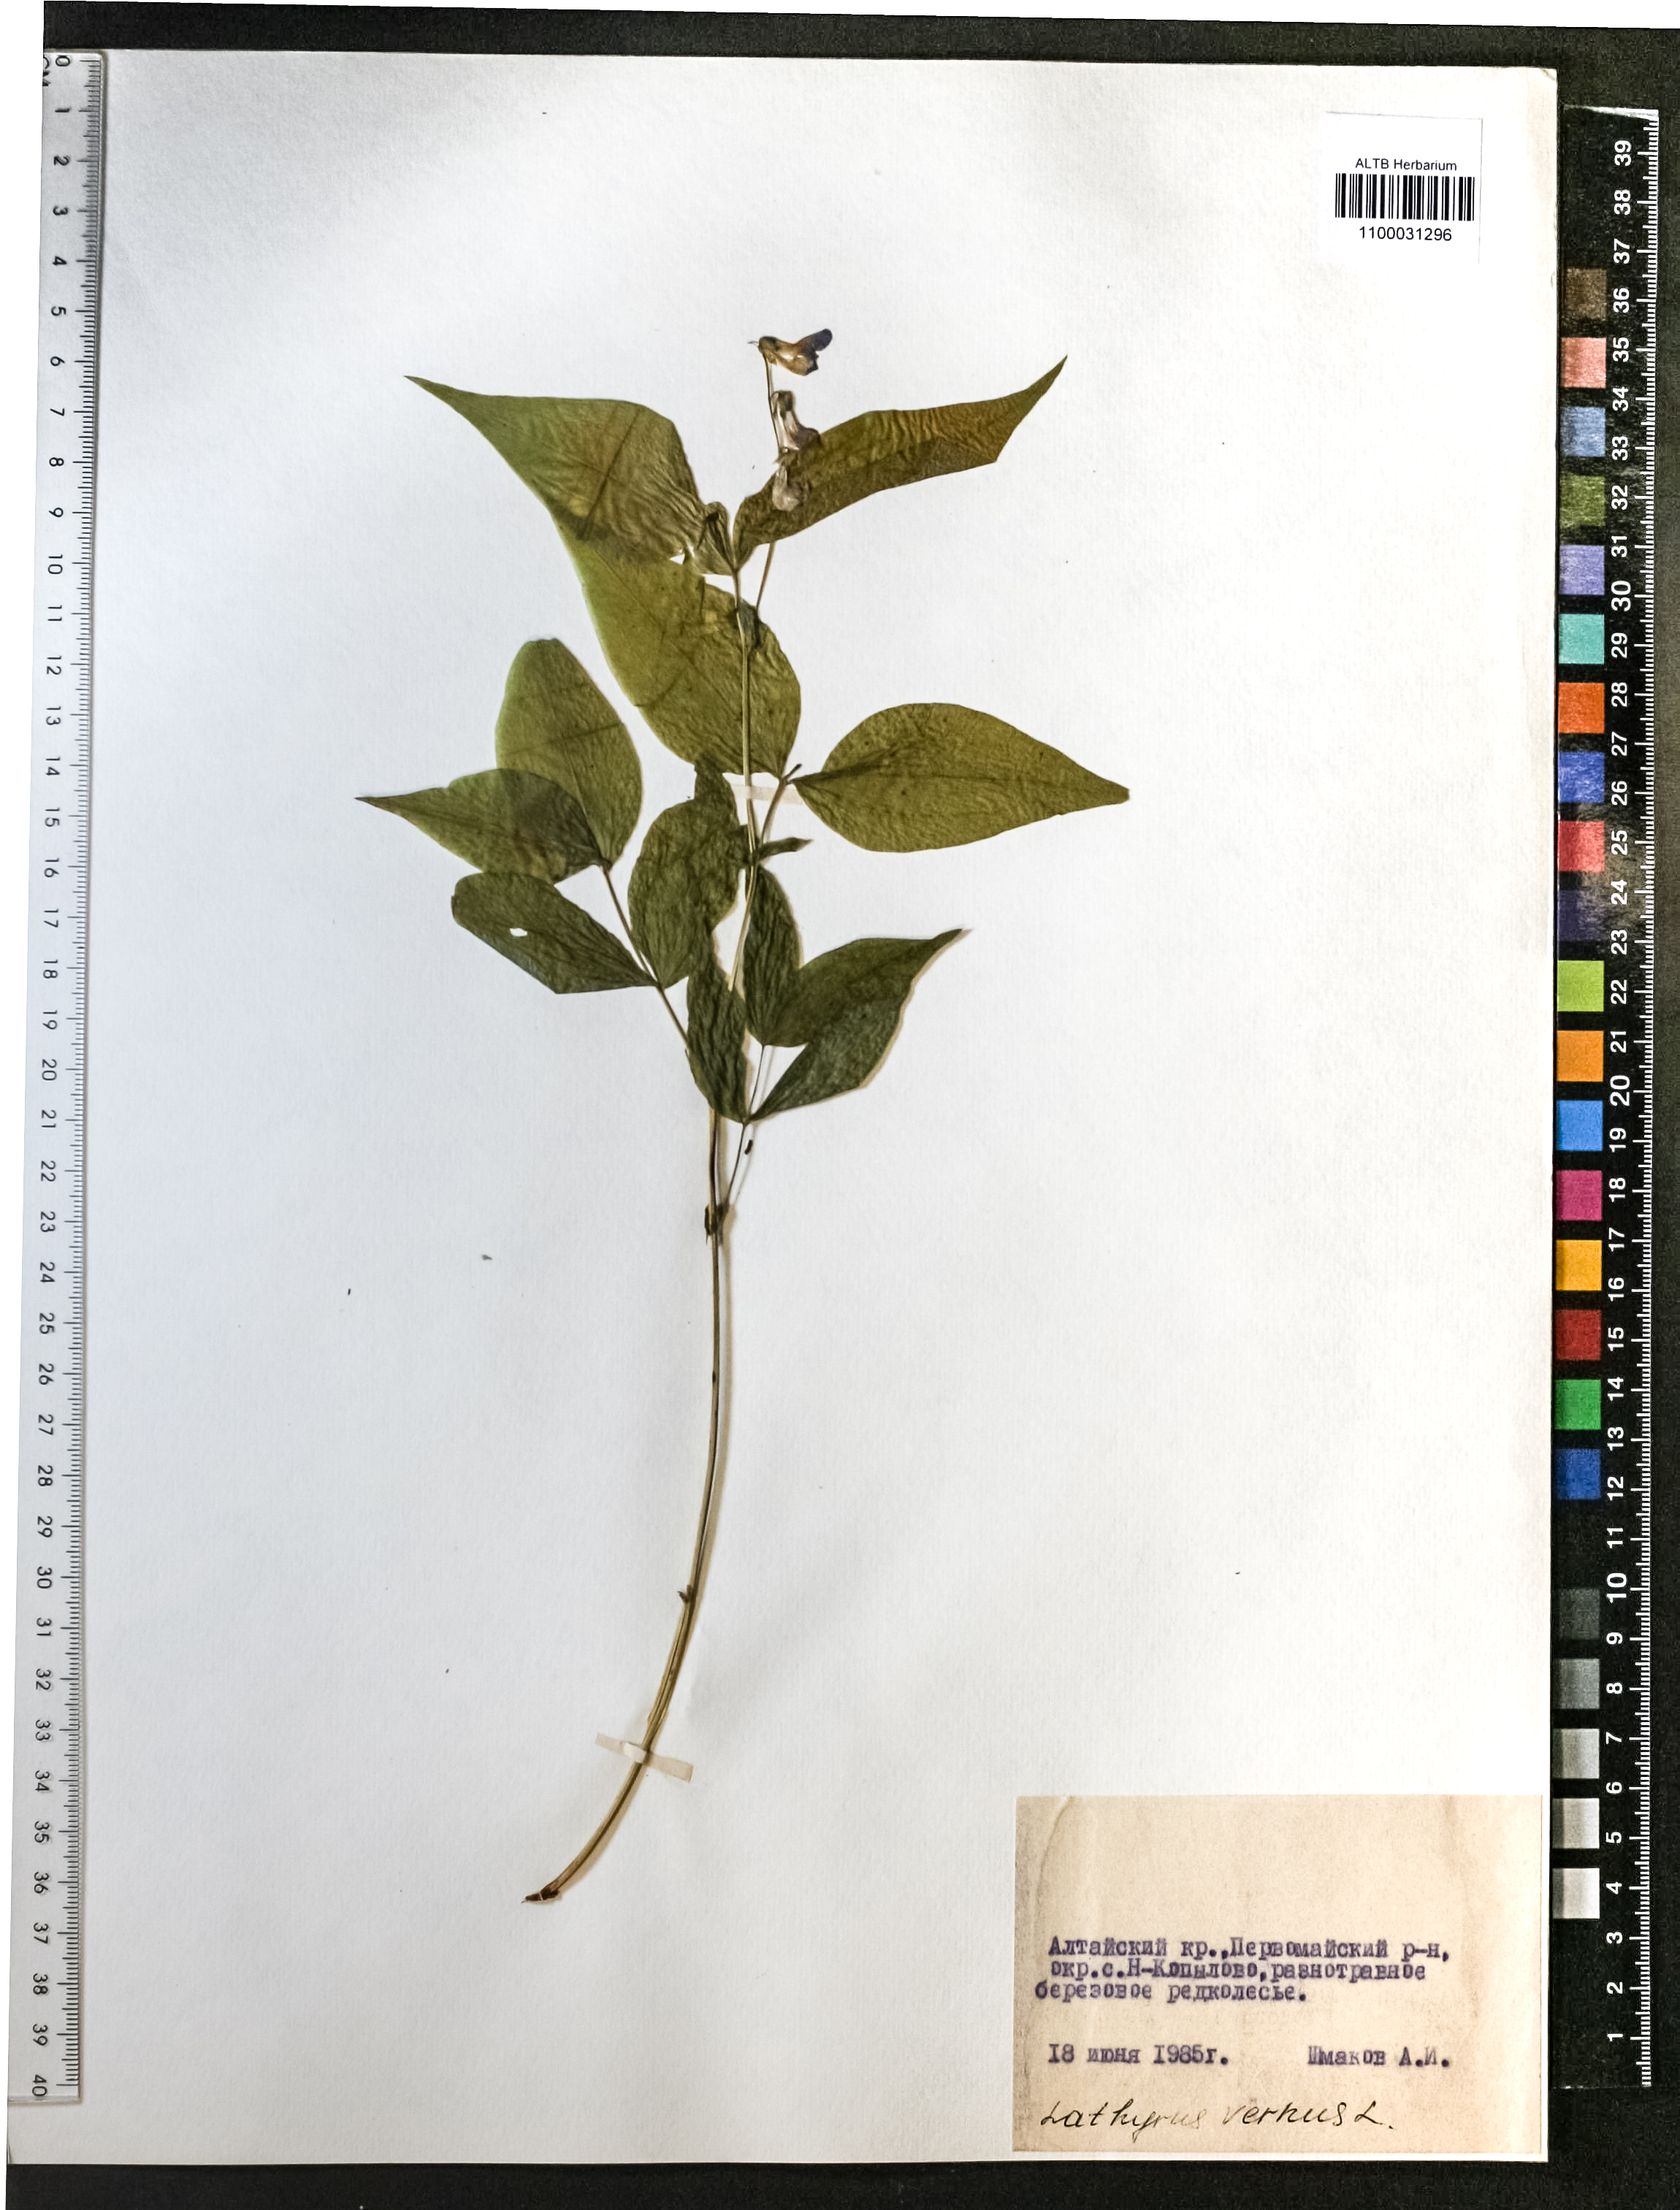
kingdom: Plantae
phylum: Tracheophyta
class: Magnoliopsida
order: Fabales
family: Fabaceae
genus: Lathyrus
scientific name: Lathyrus vernus
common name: Spring pea
